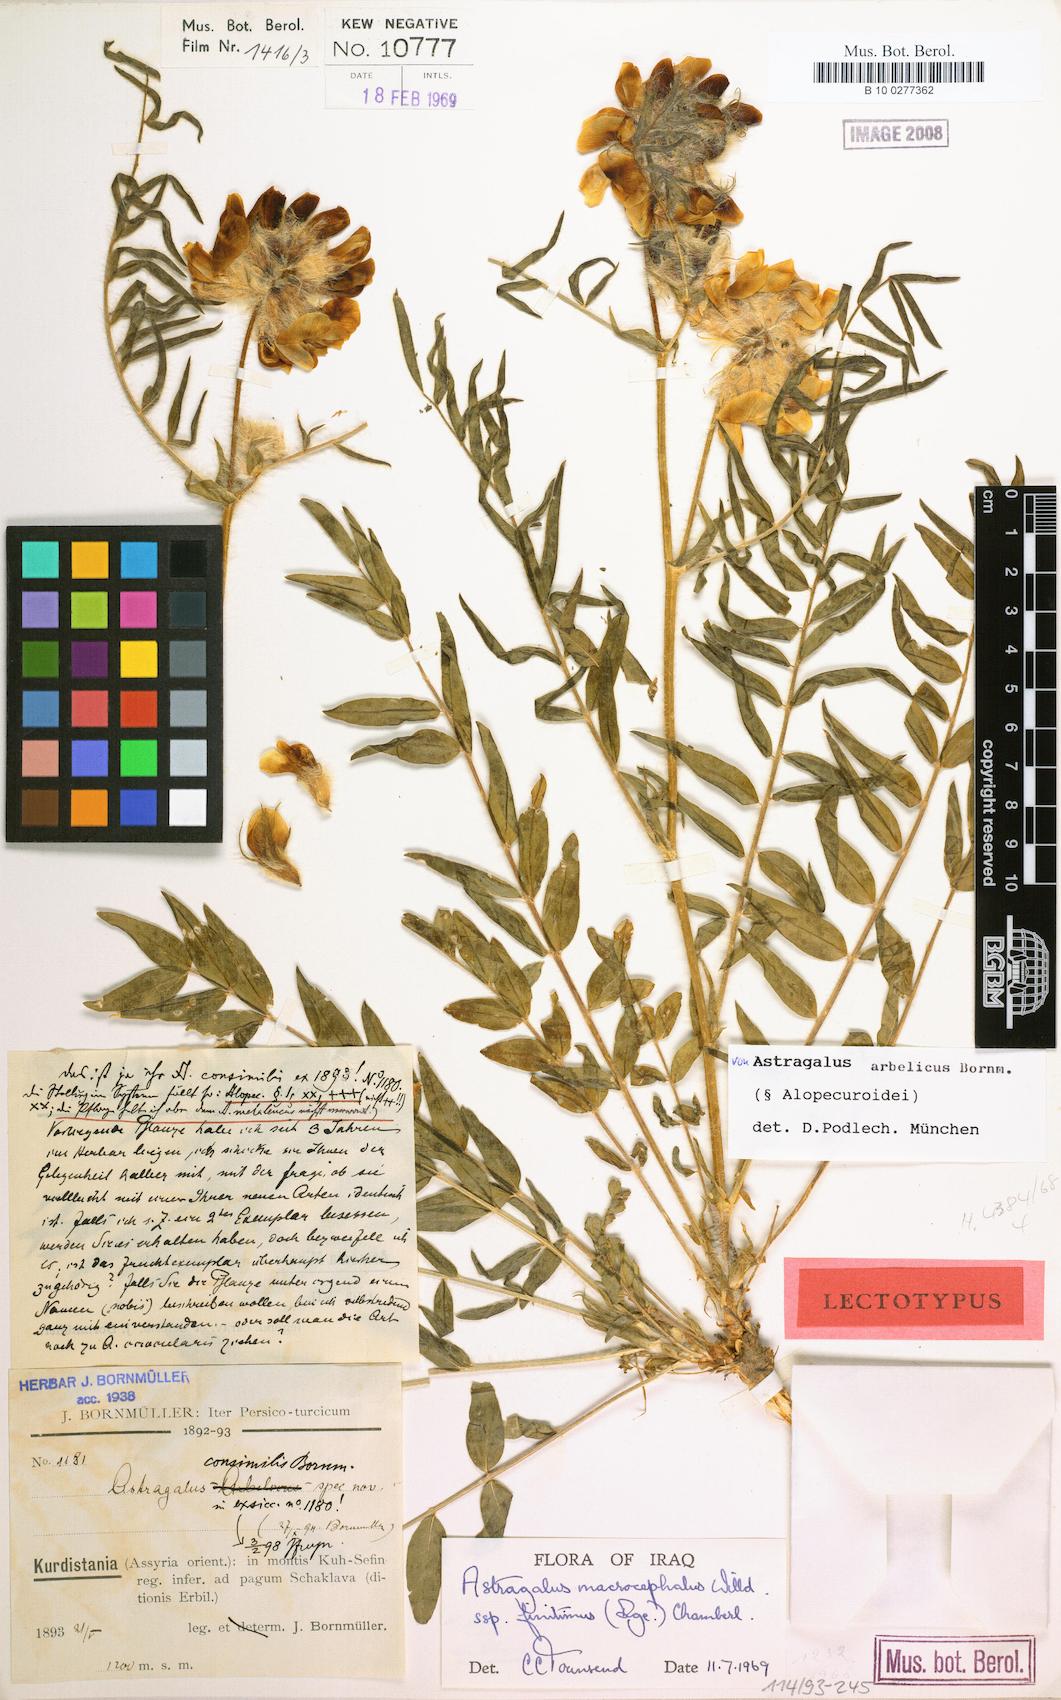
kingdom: Plantae
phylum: Tracheophyta
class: Magnoliopsida
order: Fabales
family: Fabaceae
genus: Astragalus
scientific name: Astragalus macrocephalus
